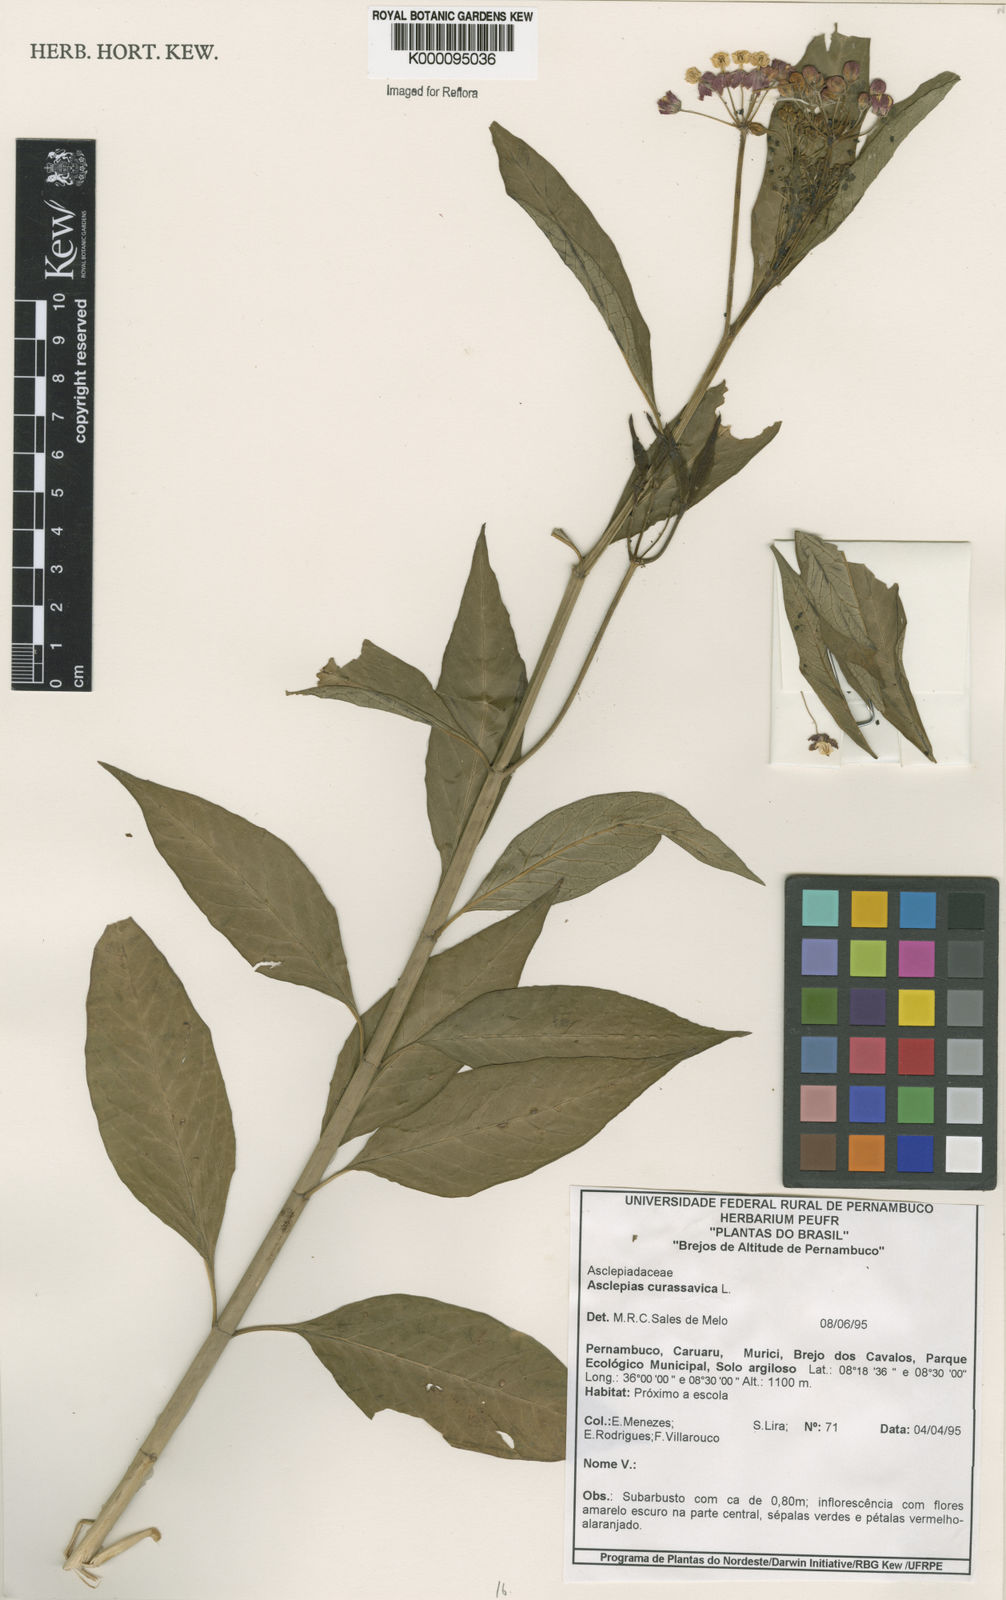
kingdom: Plantae
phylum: Tracheophyta
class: Magnoliopsida
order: Gentianales
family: Apocynaceae
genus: Asclepias
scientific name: Asclepias curassavica
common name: Bloodflower
